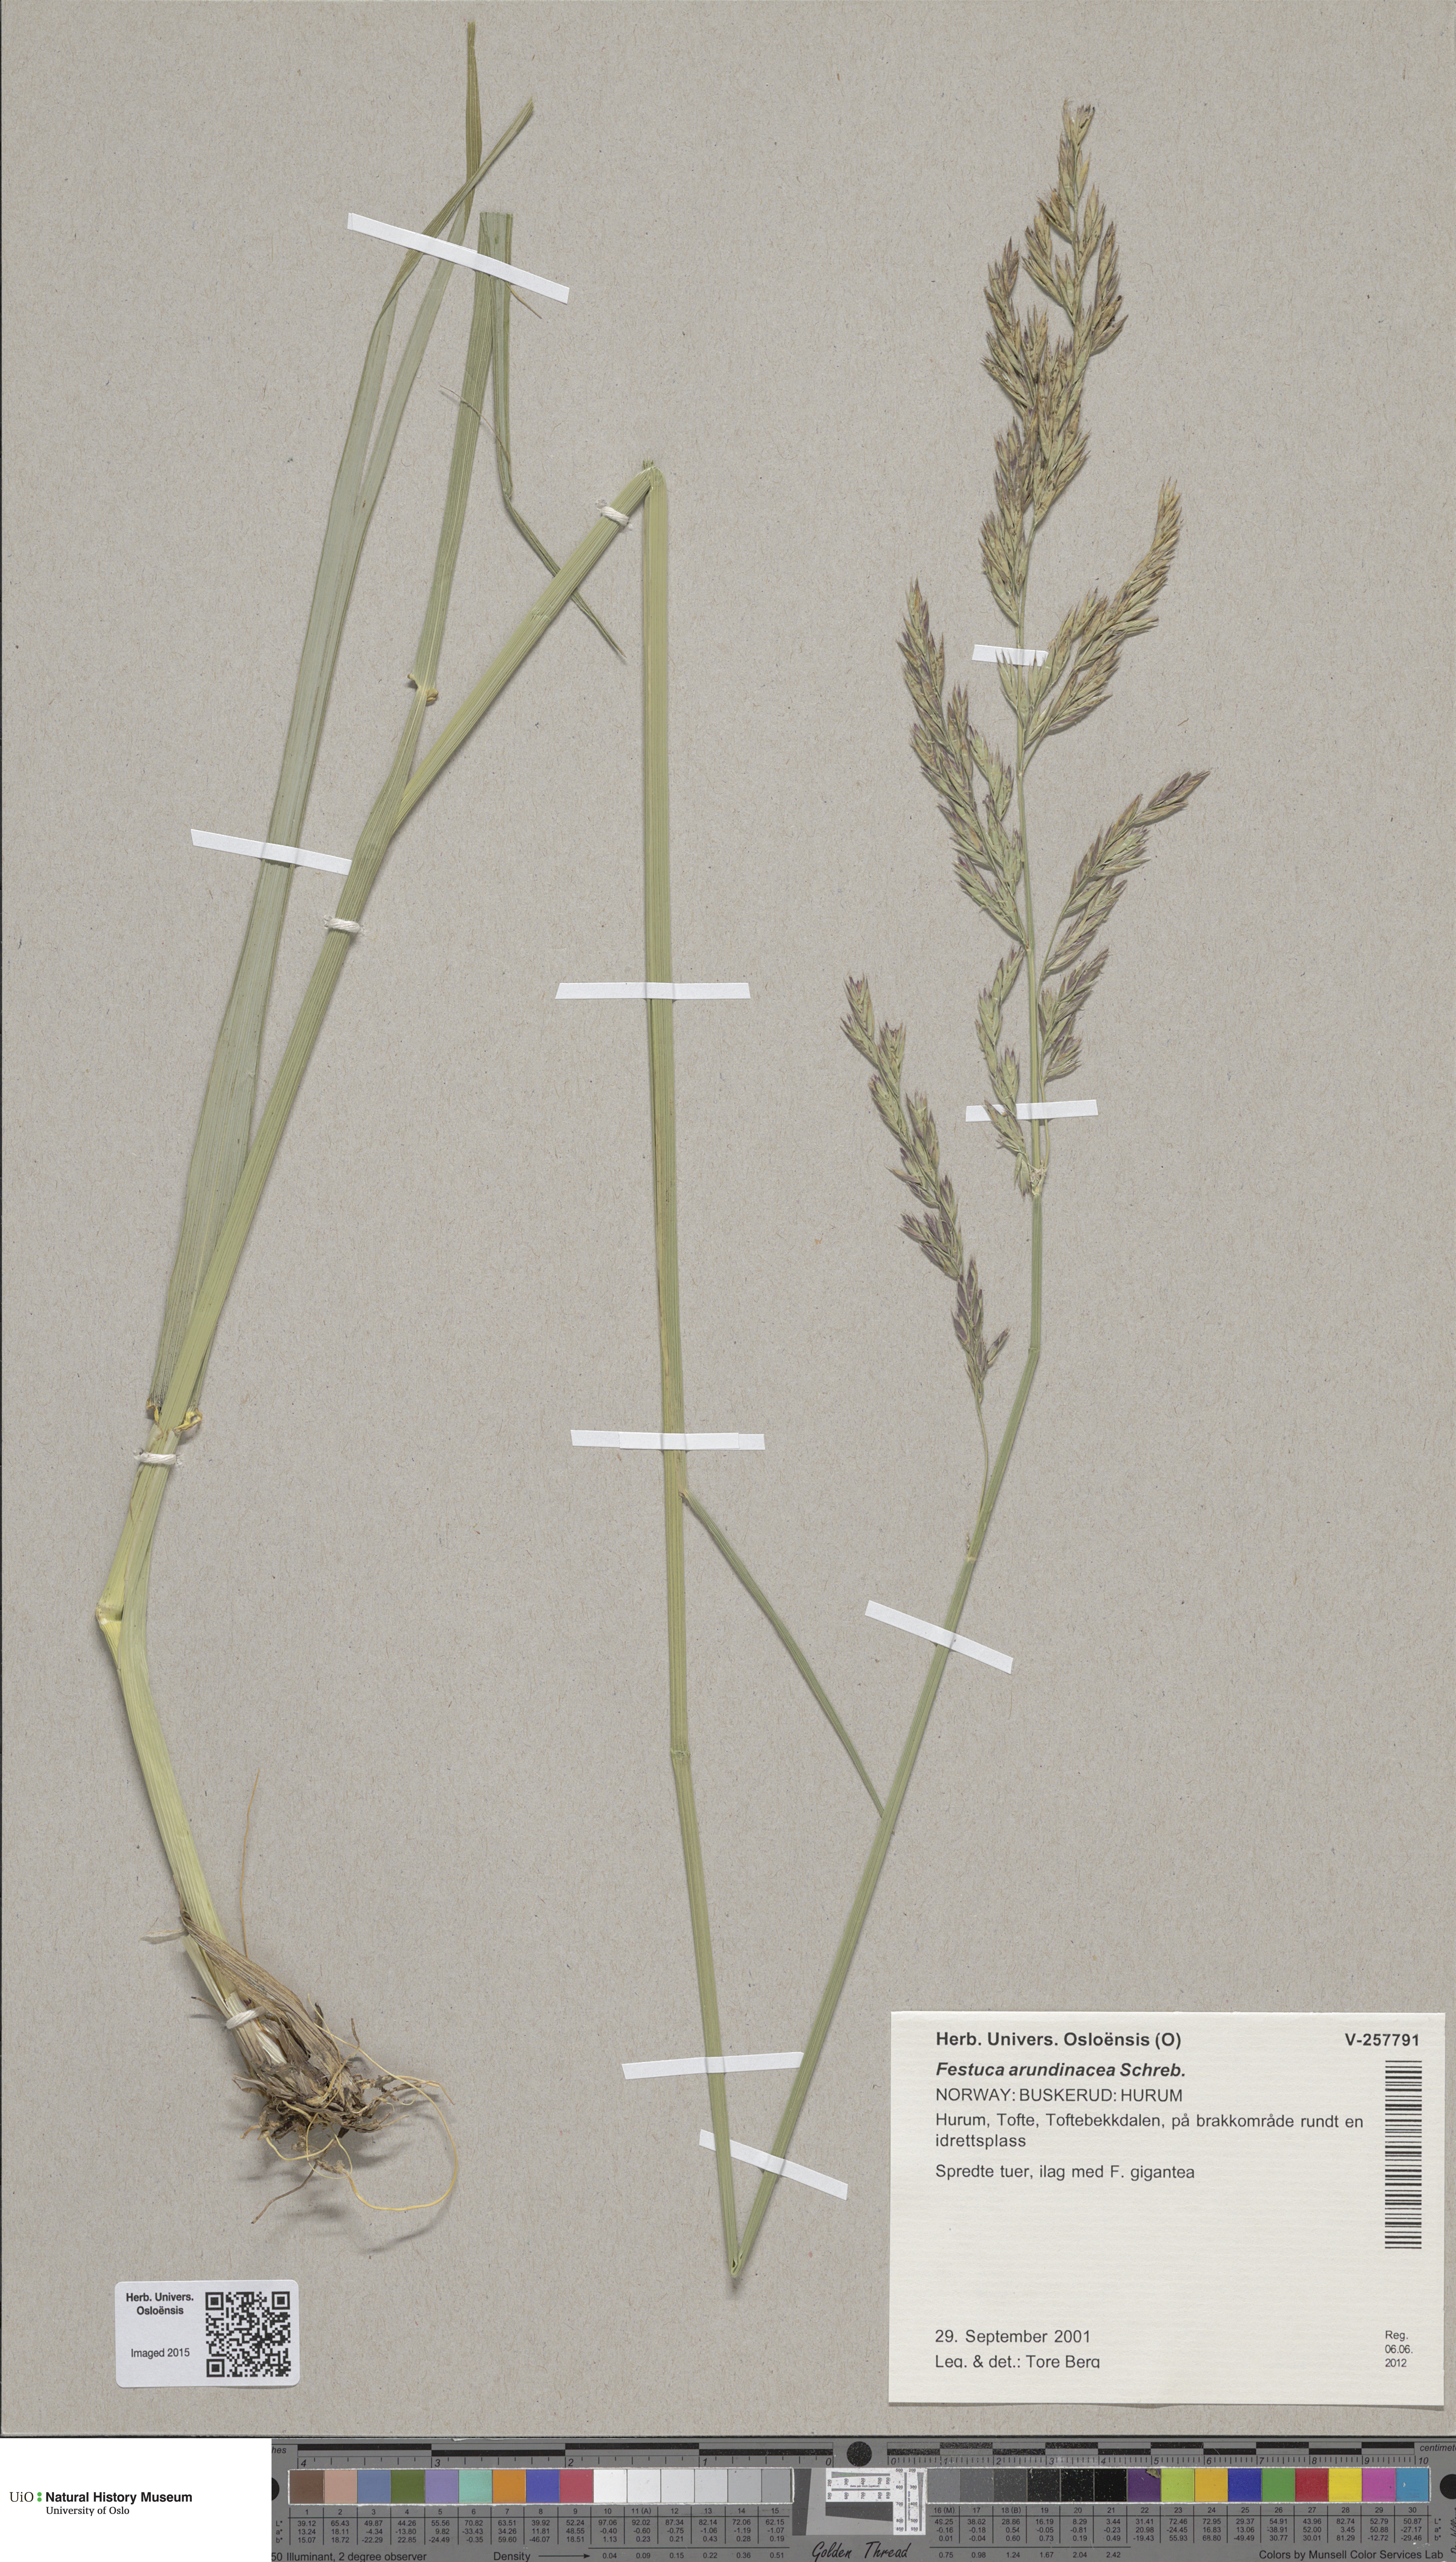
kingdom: Plantae
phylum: Tracheophyta
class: Liliopsida
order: Poales
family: Poaceae
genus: Lolium
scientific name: Lolium arundinaceum
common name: Reed fescue
